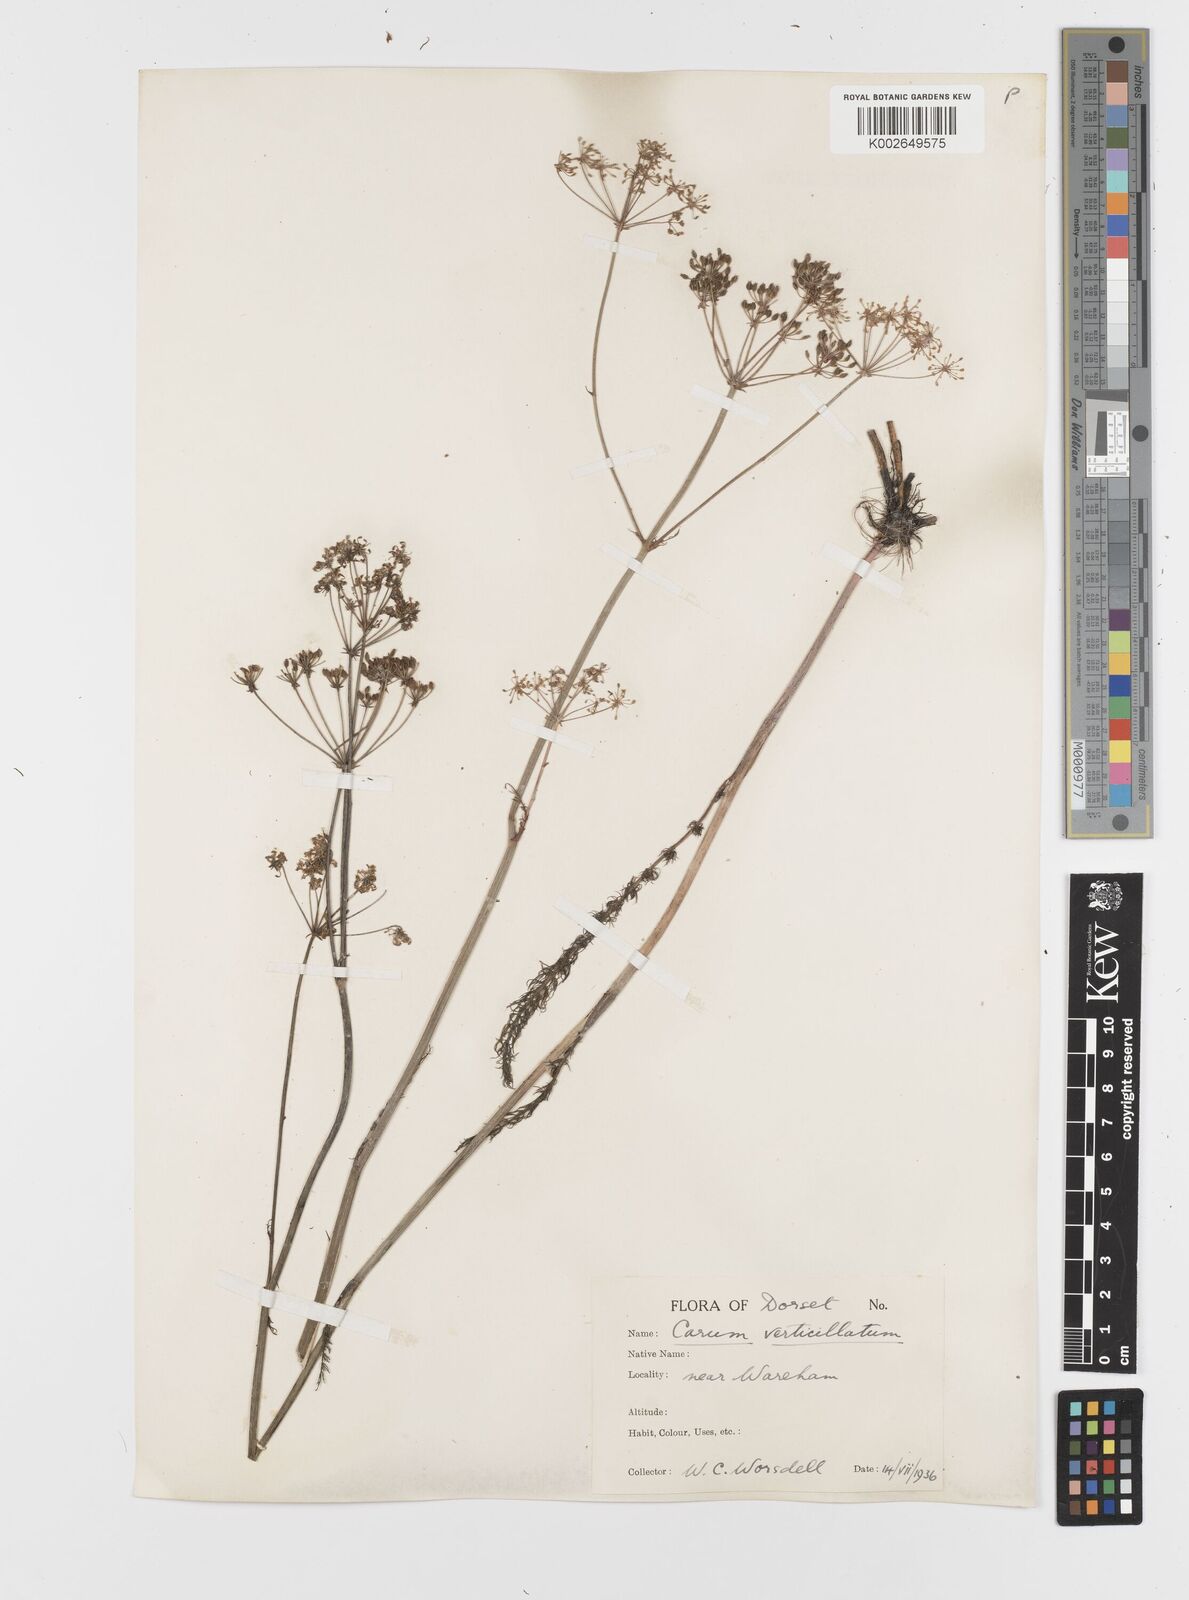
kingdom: Plantae
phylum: Tracheophyta
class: Magnoliopsida
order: Apiales
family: Apiaceae
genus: Trocdaris
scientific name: Trocdaris verticillatum
